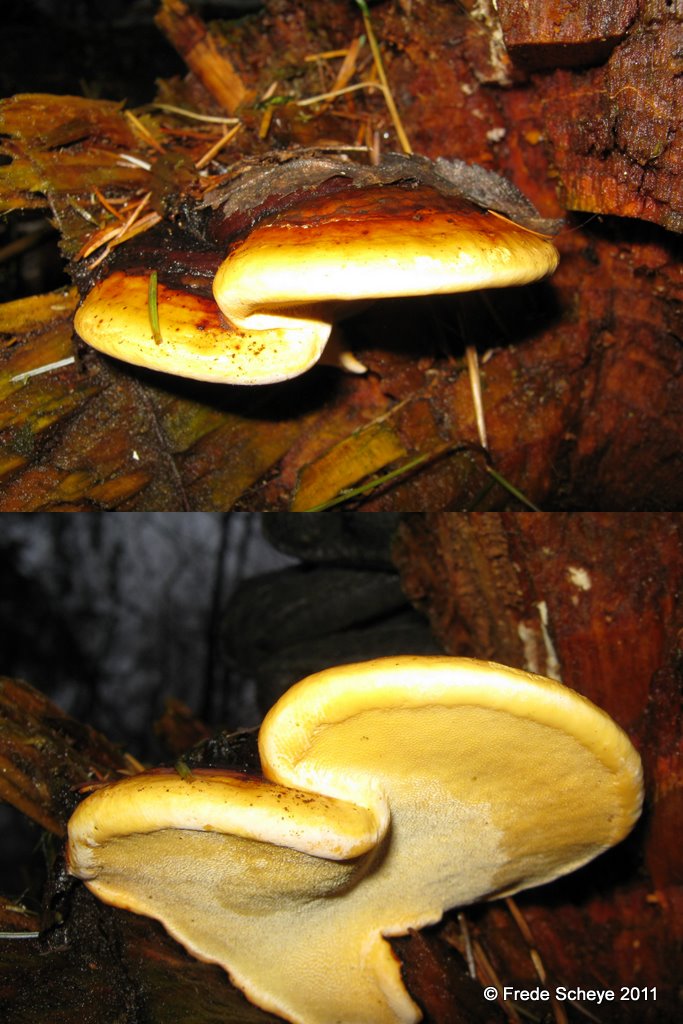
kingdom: Fungi
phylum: Basidiomycota
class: Agaricomycetes
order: Polyporales
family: Fomitopsidaceae
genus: Fomitopsis
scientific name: Fomitopsis pinicola
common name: randbæltet hovporesvamp
